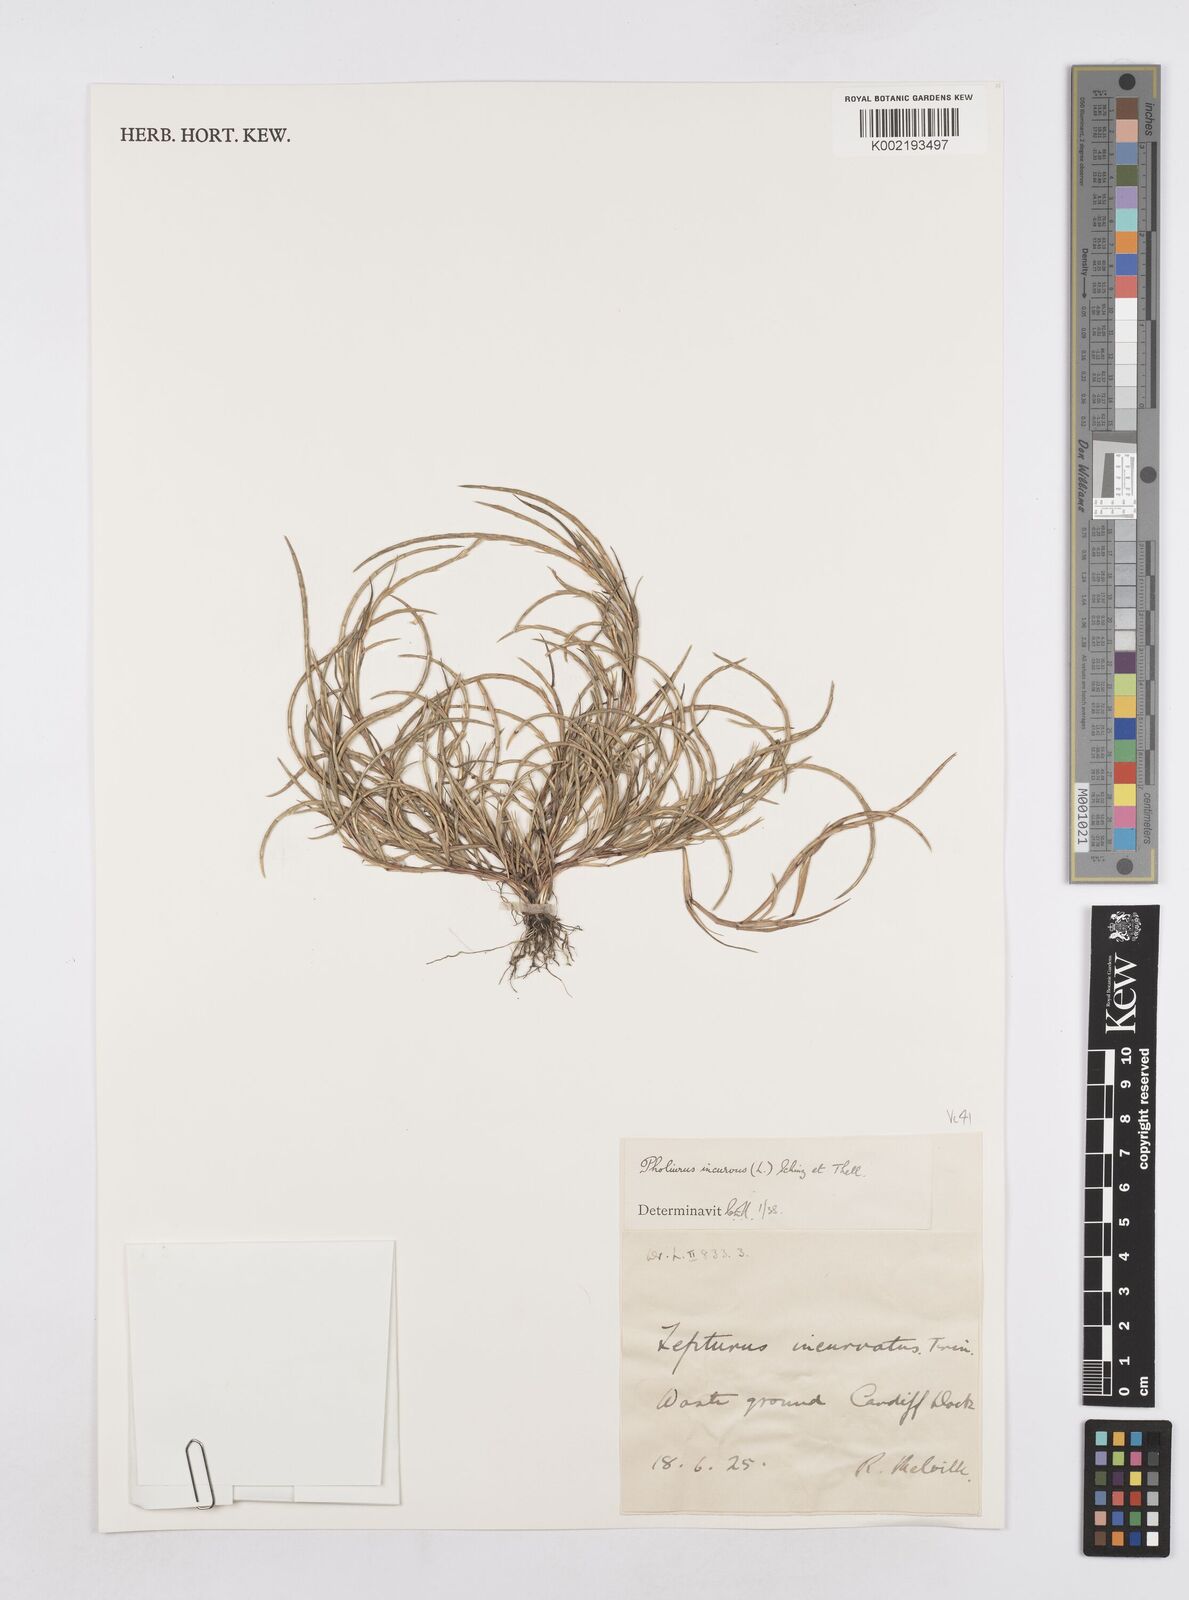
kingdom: Plantae
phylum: Tracheophyta
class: Liliopsida
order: Poales
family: Poaceae
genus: Parapholis
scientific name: Parapholis incurva
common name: Curved sicklegrass
